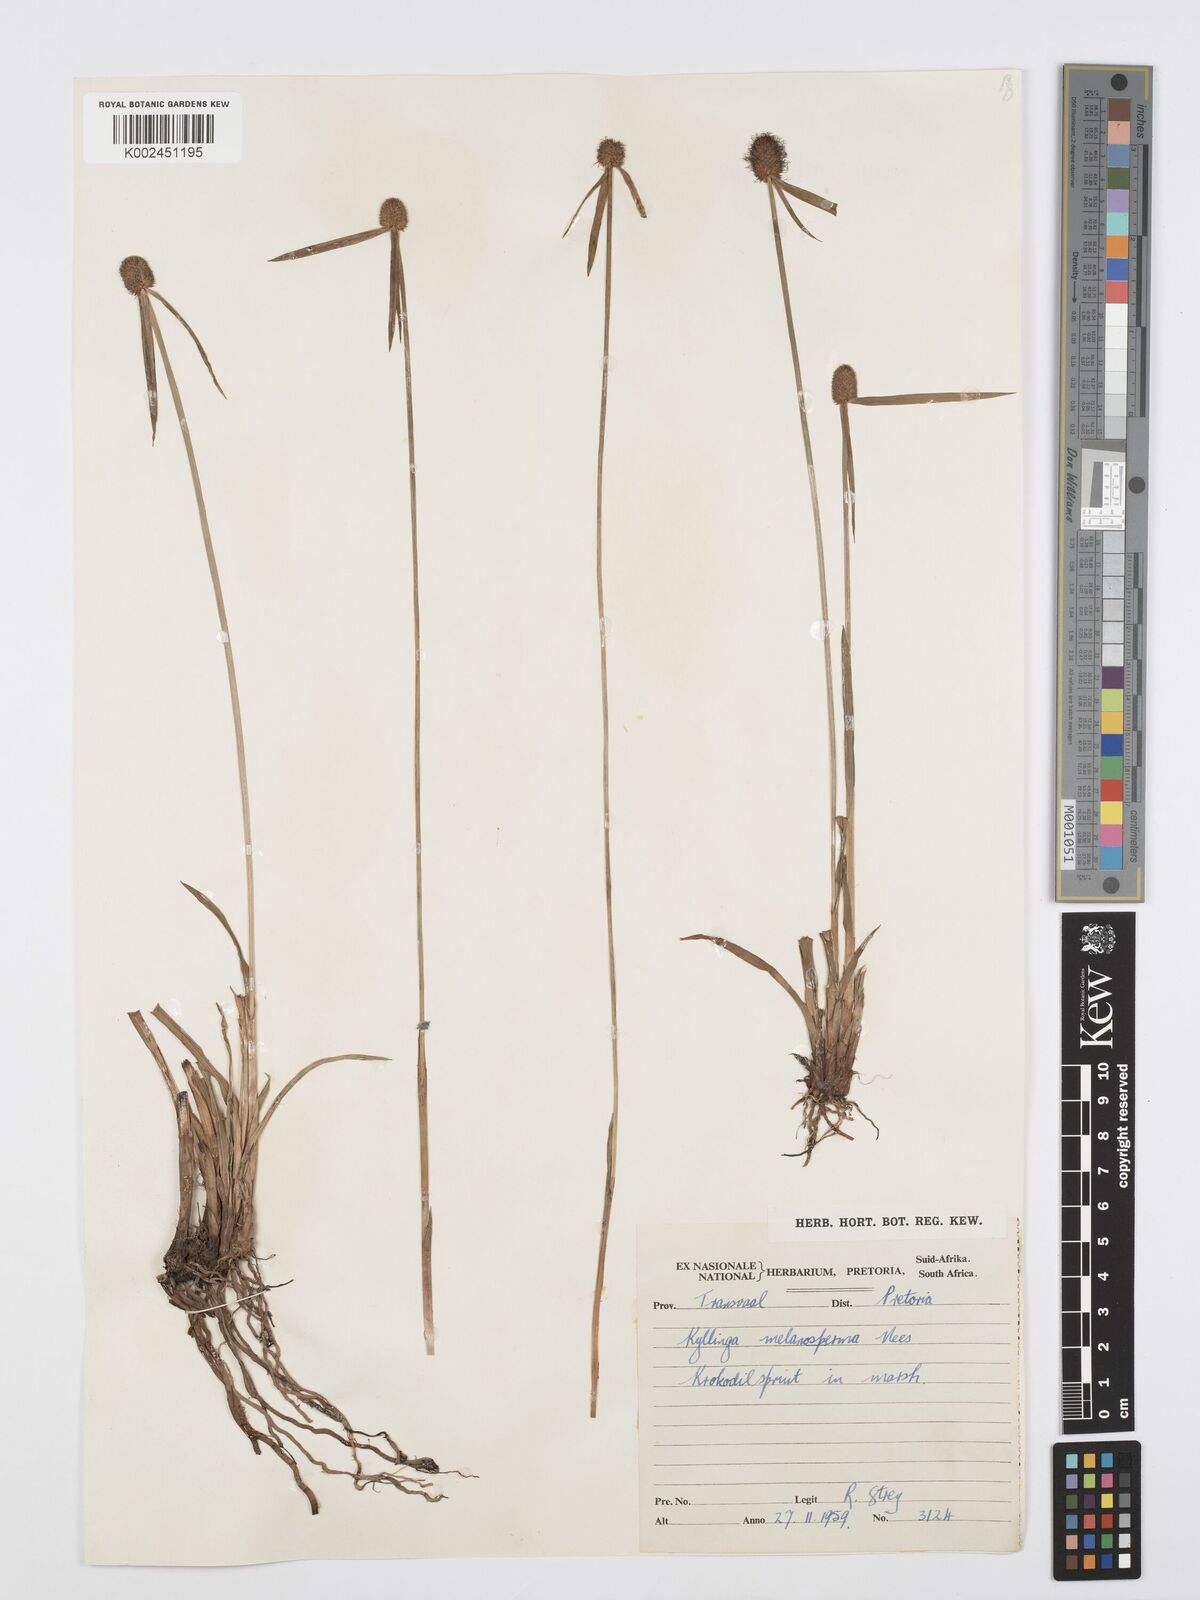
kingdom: Plantae
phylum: Tracheophyta
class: Liliopsida
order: Poales
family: Cyperaceae
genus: Cyperus
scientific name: Cyperus melanospermus
